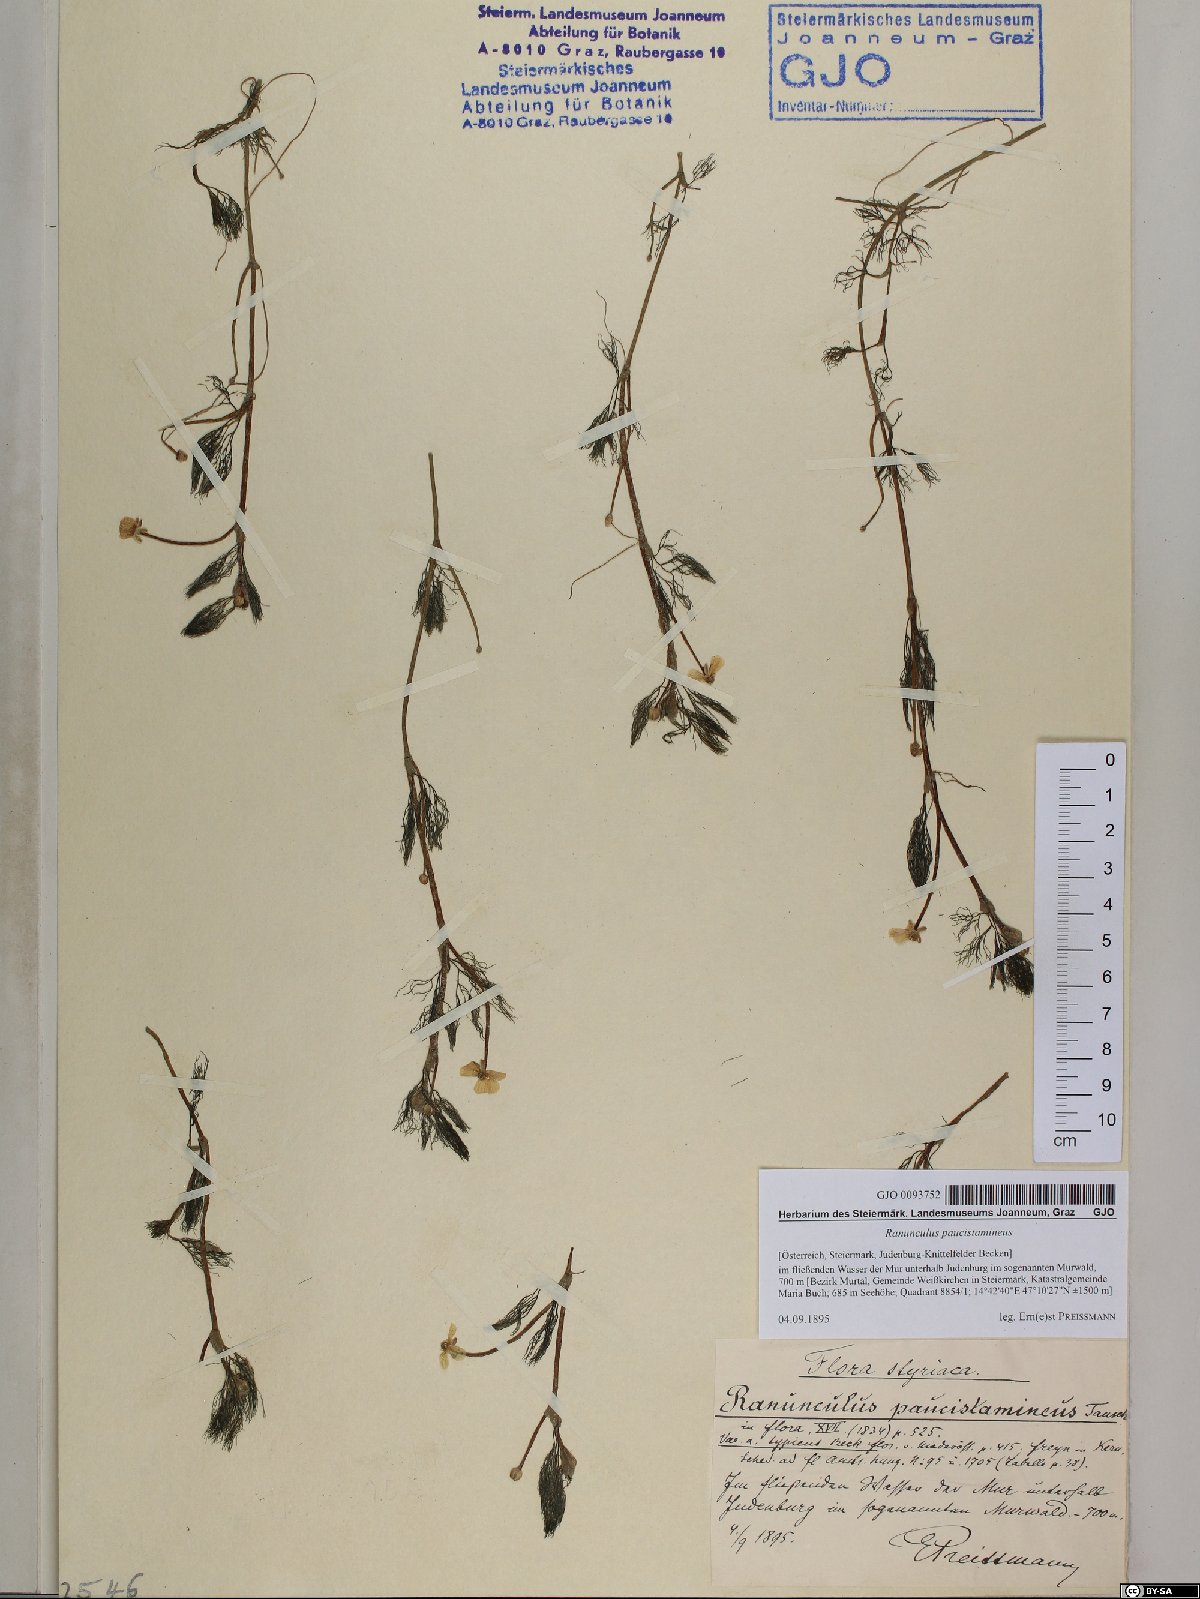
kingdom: Plantae
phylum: Tracheophyta
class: Magnoliopsida
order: Ranunculales
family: Ranunculaceae
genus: Ranunculus
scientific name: Ranunculus
